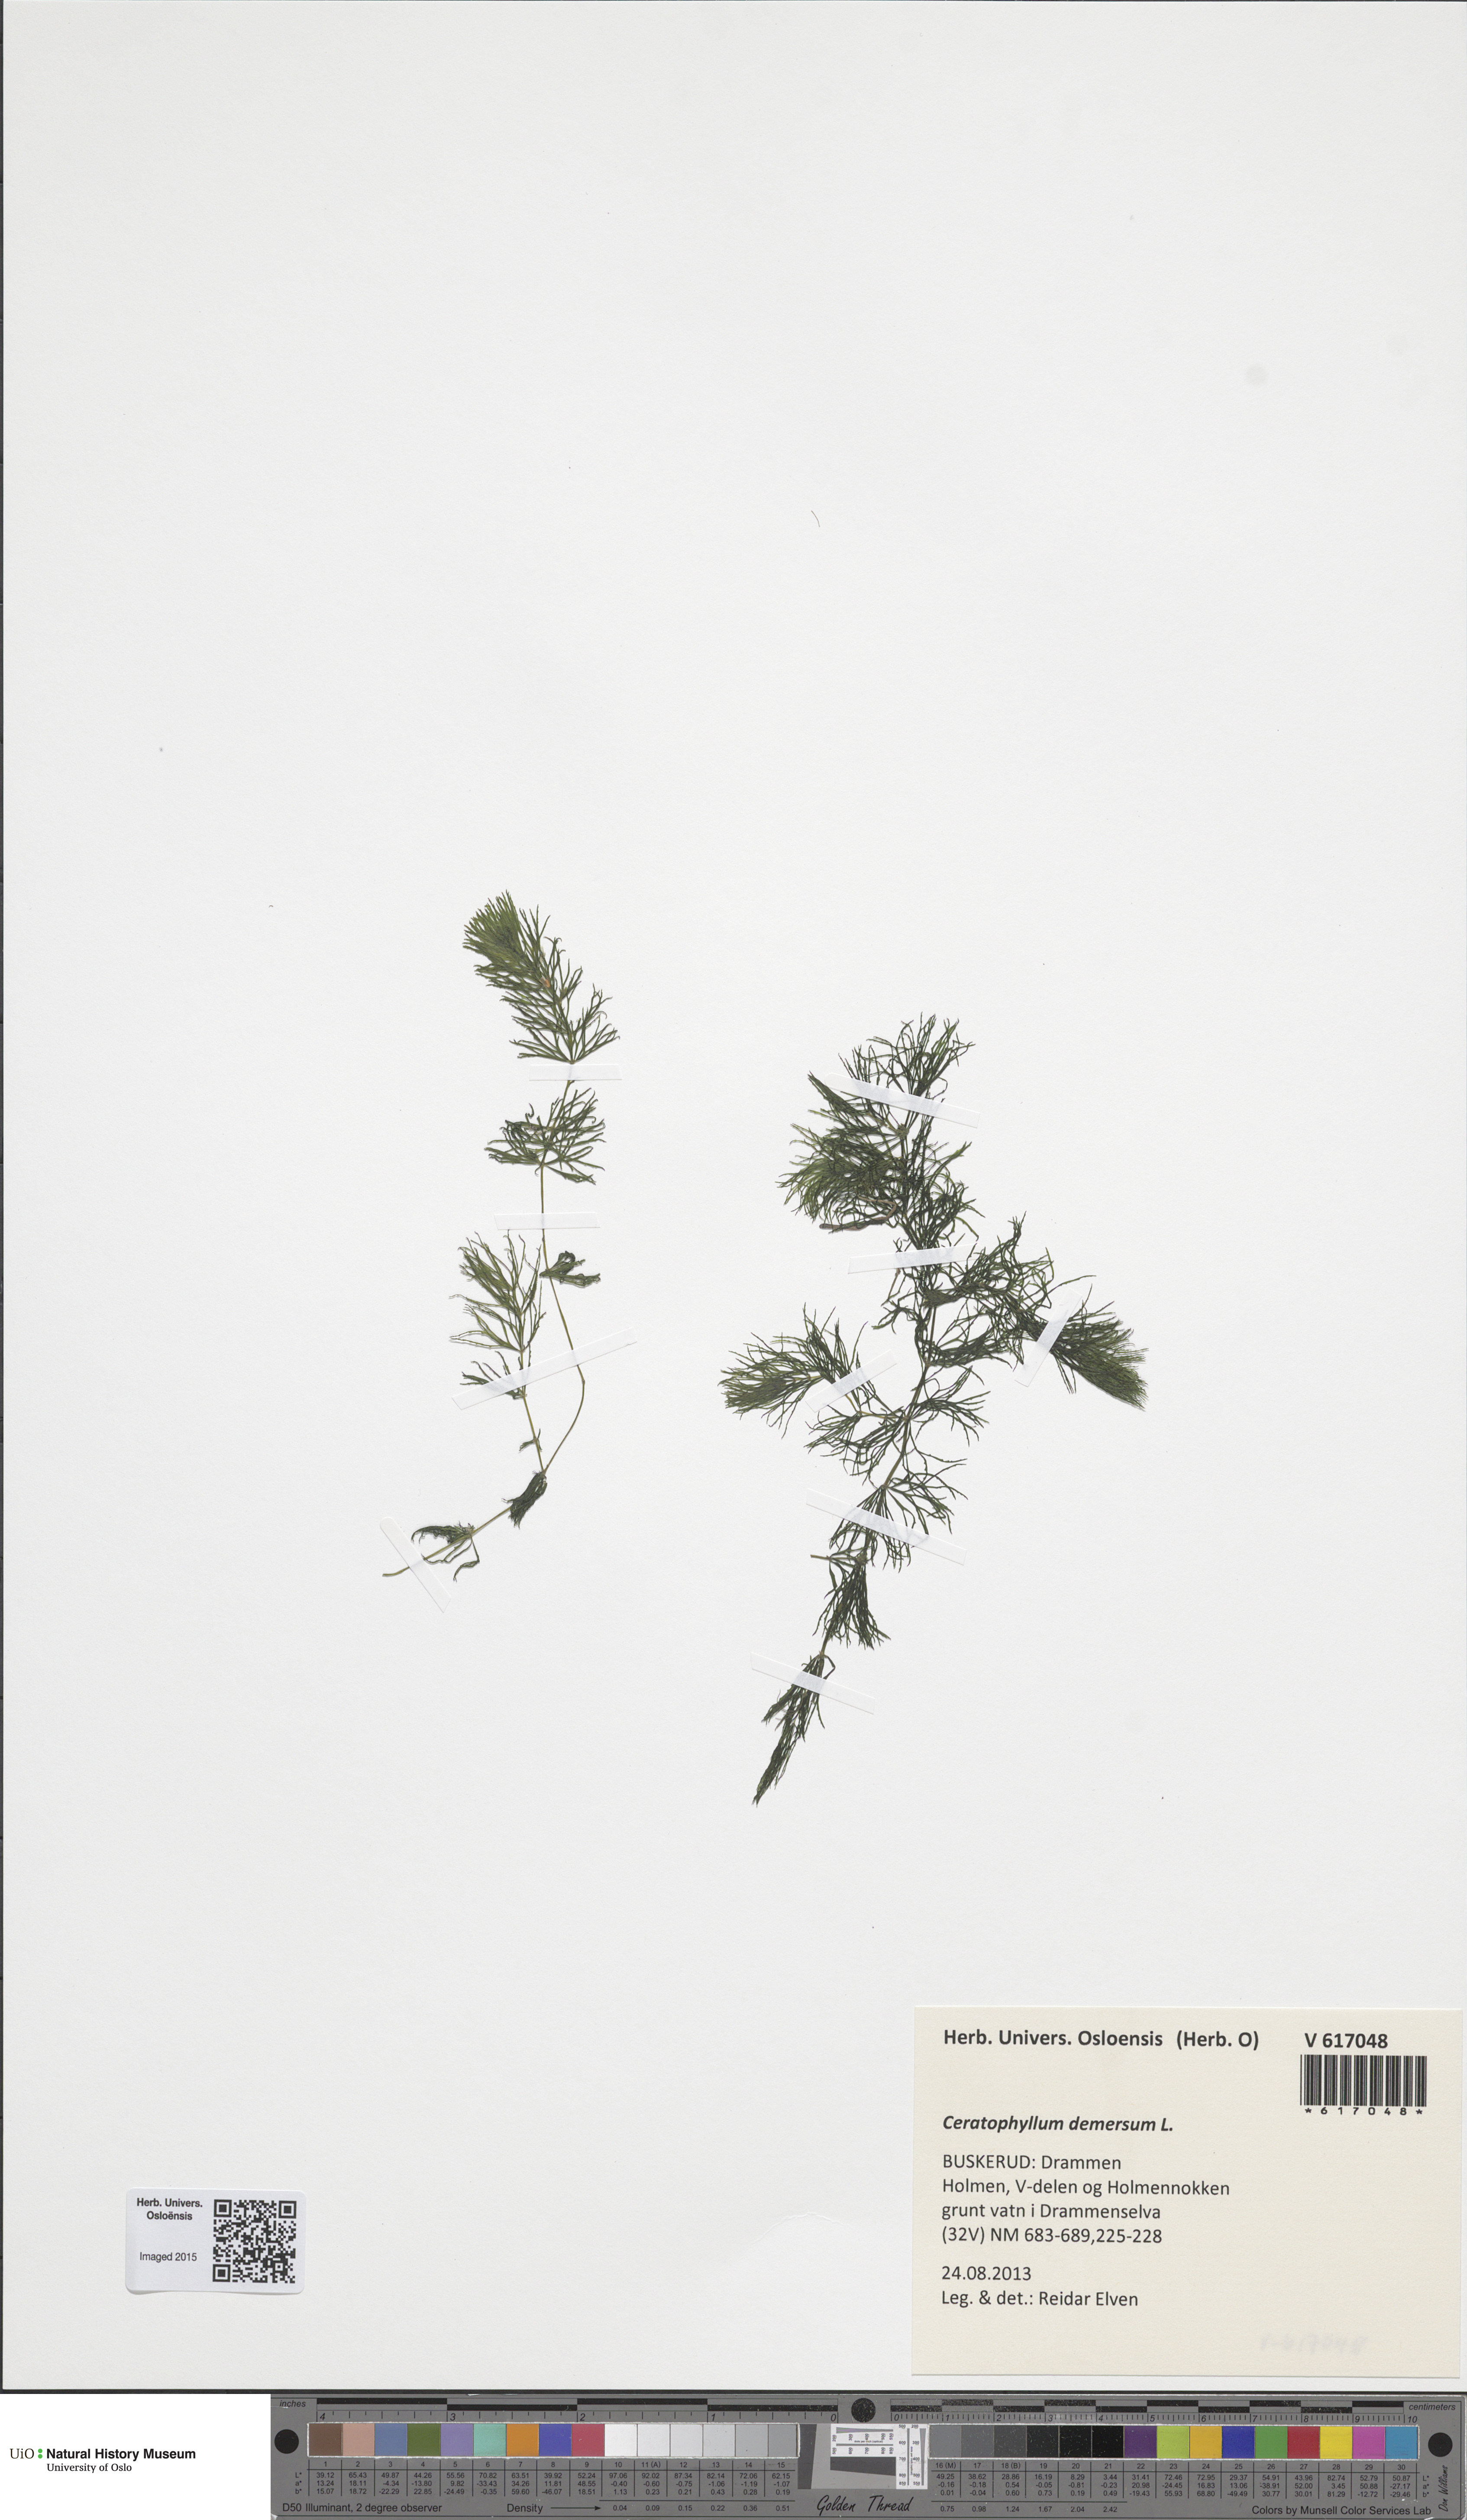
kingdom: Plantae
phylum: Tracheophyta
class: Magnoliopsida
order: Ceratophyllales
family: Ceratophyllaceae
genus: Ceratophyllum
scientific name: Ceratophyllum demersum
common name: Rigid hornwort
